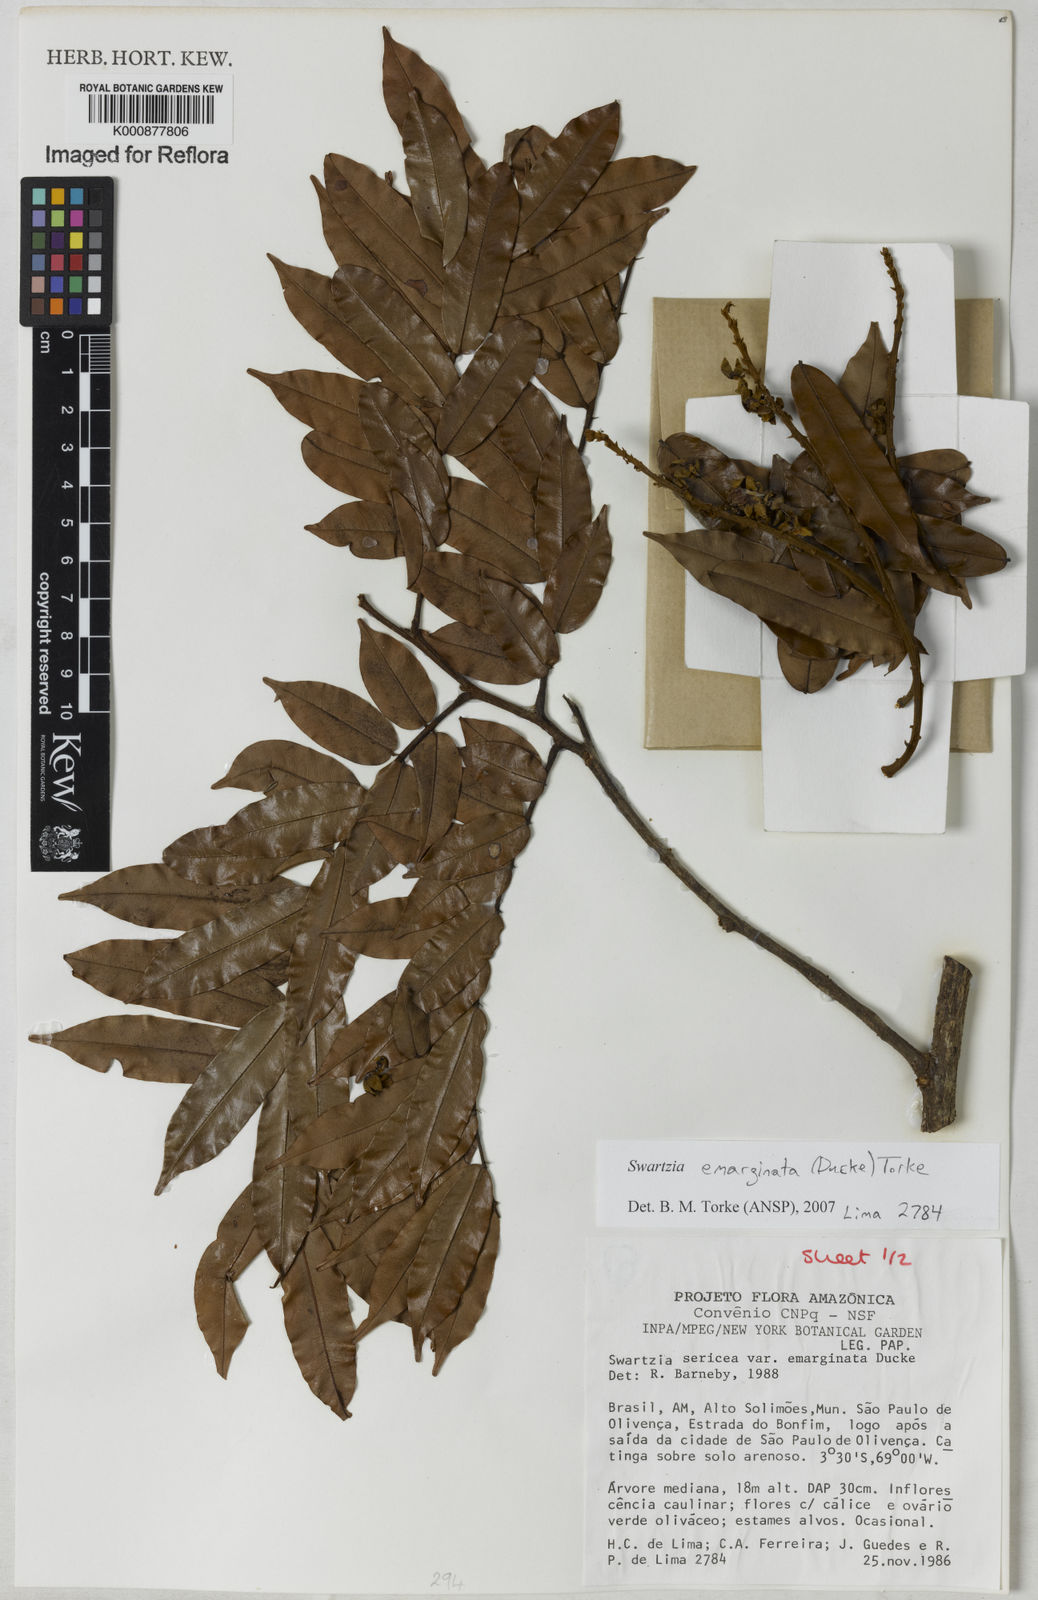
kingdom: Plantae
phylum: Tracheophyta
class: Magnoliopsida
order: Fabales
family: Fabaceae
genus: Swartzia
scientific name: Swartzia emarginata
